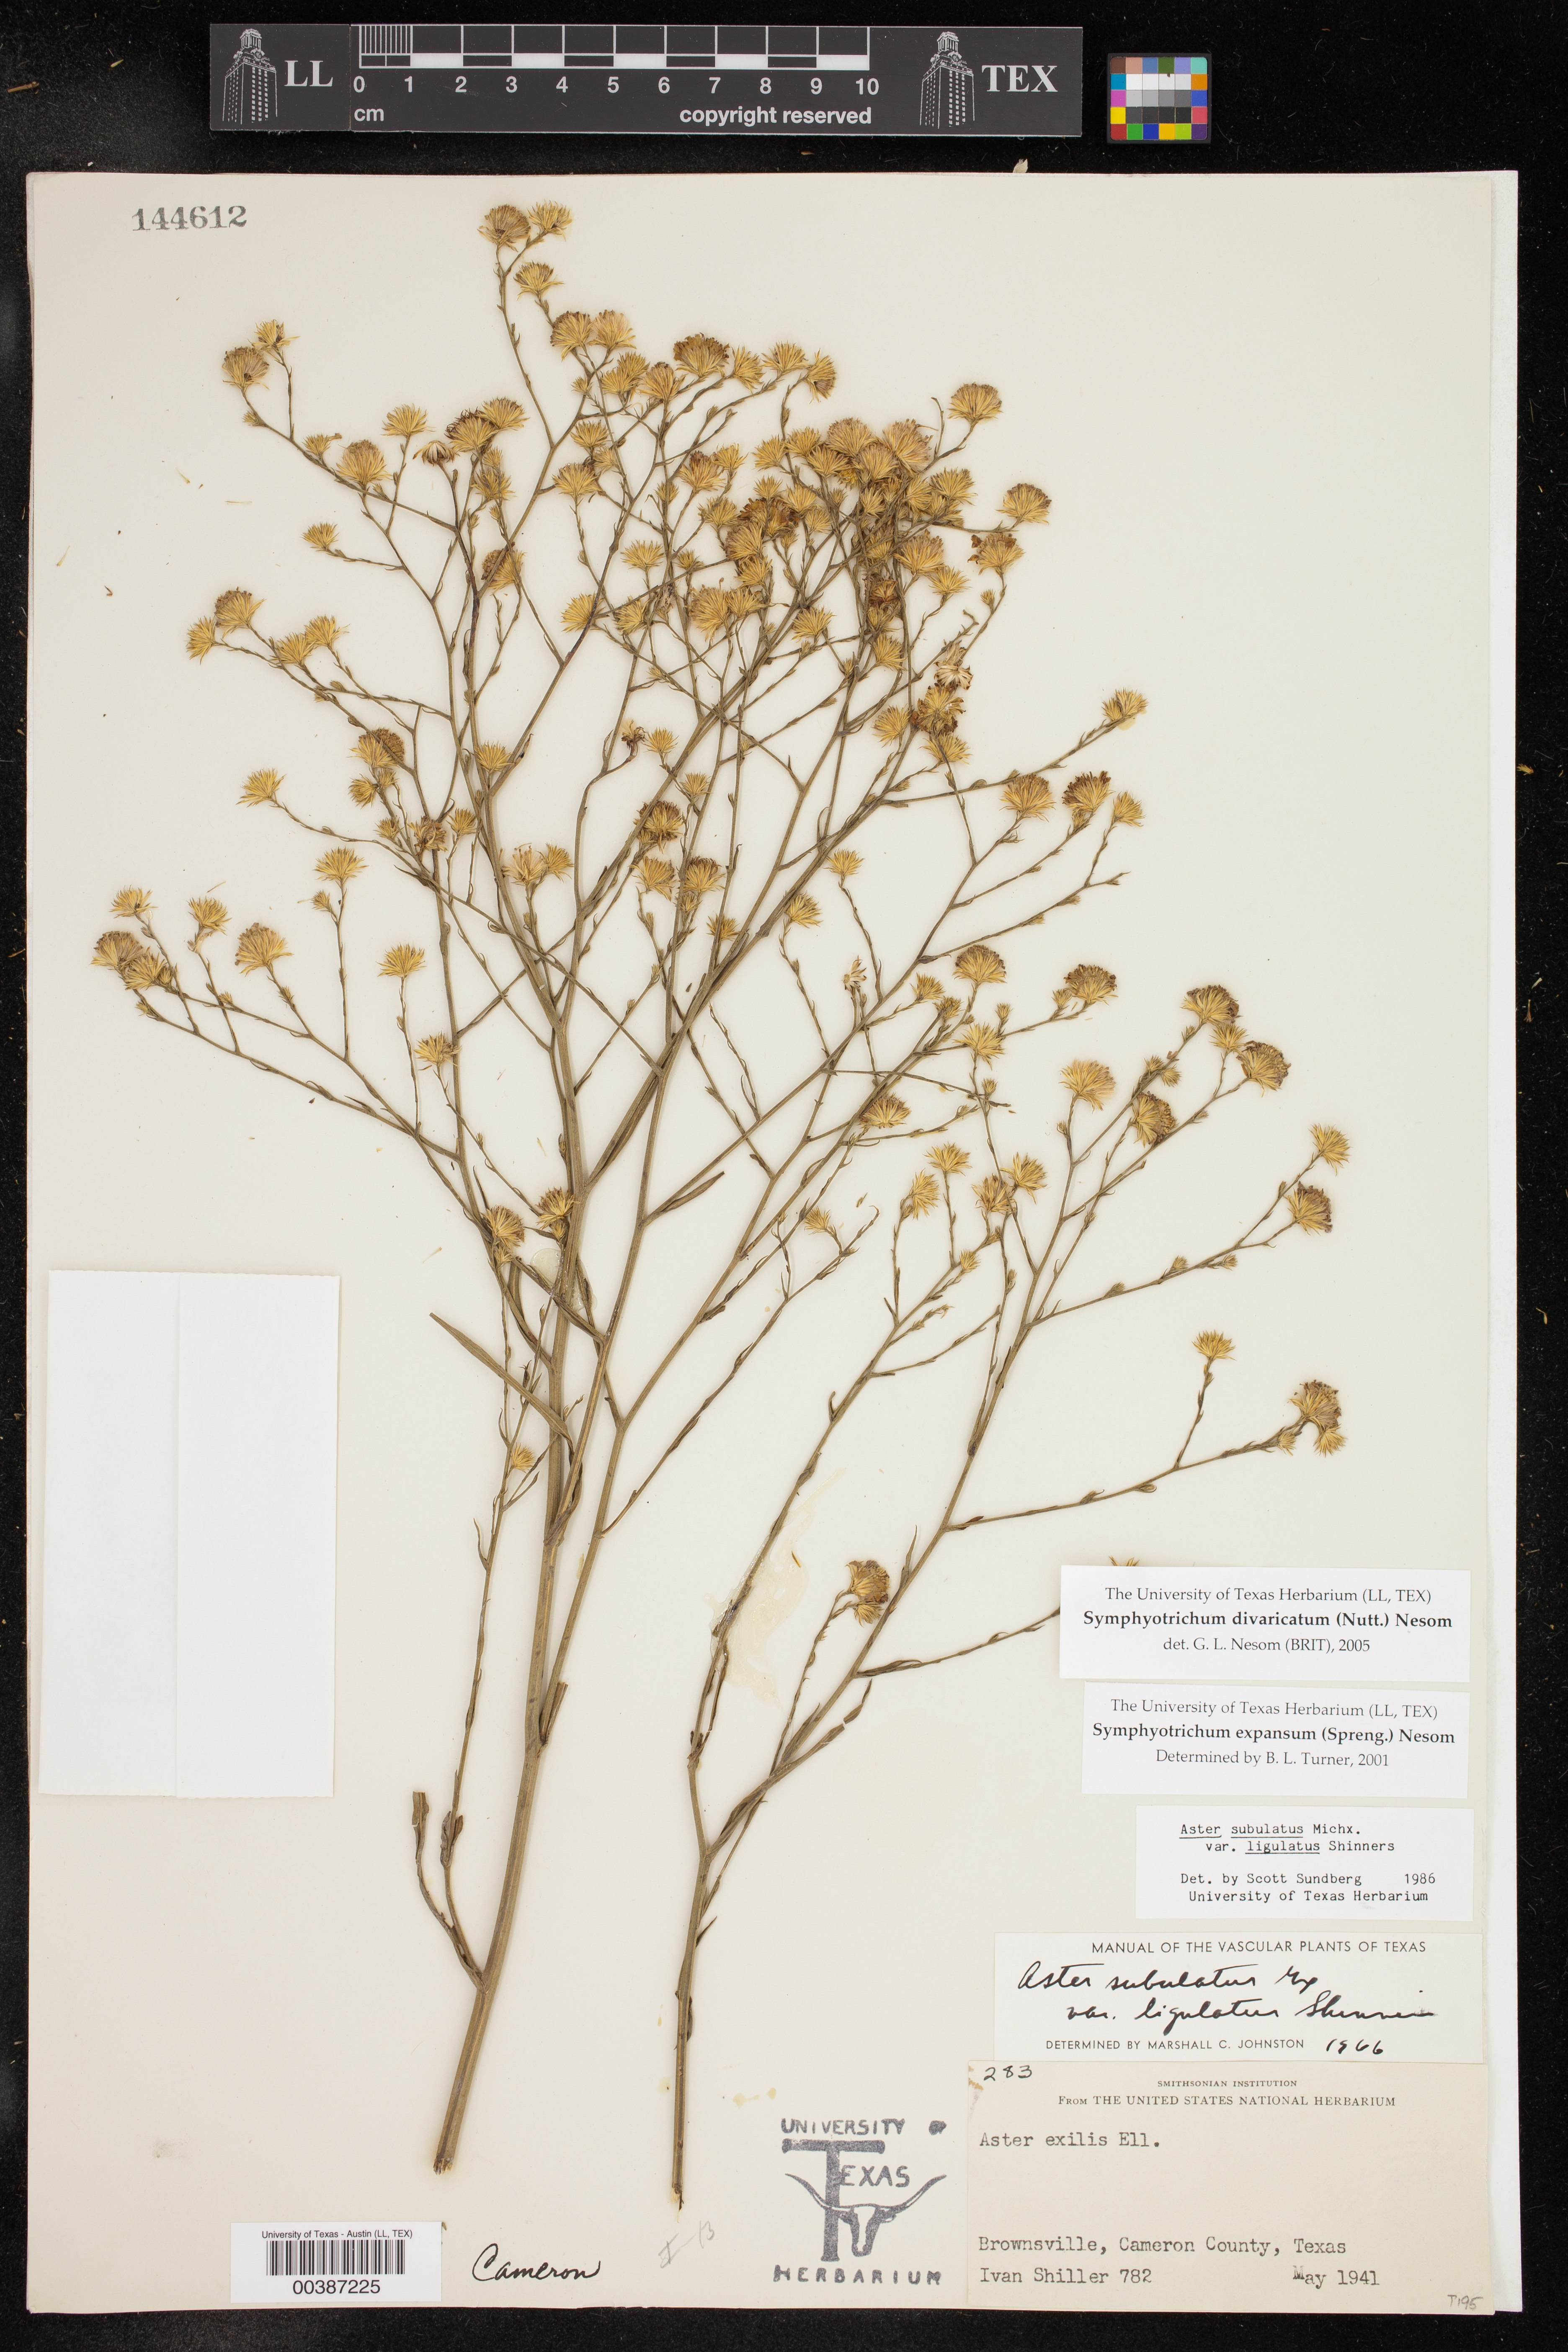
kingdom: Plantae
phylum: Tracheophyta
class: Magnoliopsida
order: Asterales
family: Asteraceae
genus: Symphyotrichum
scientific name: Symphyotrichum divaricatum
